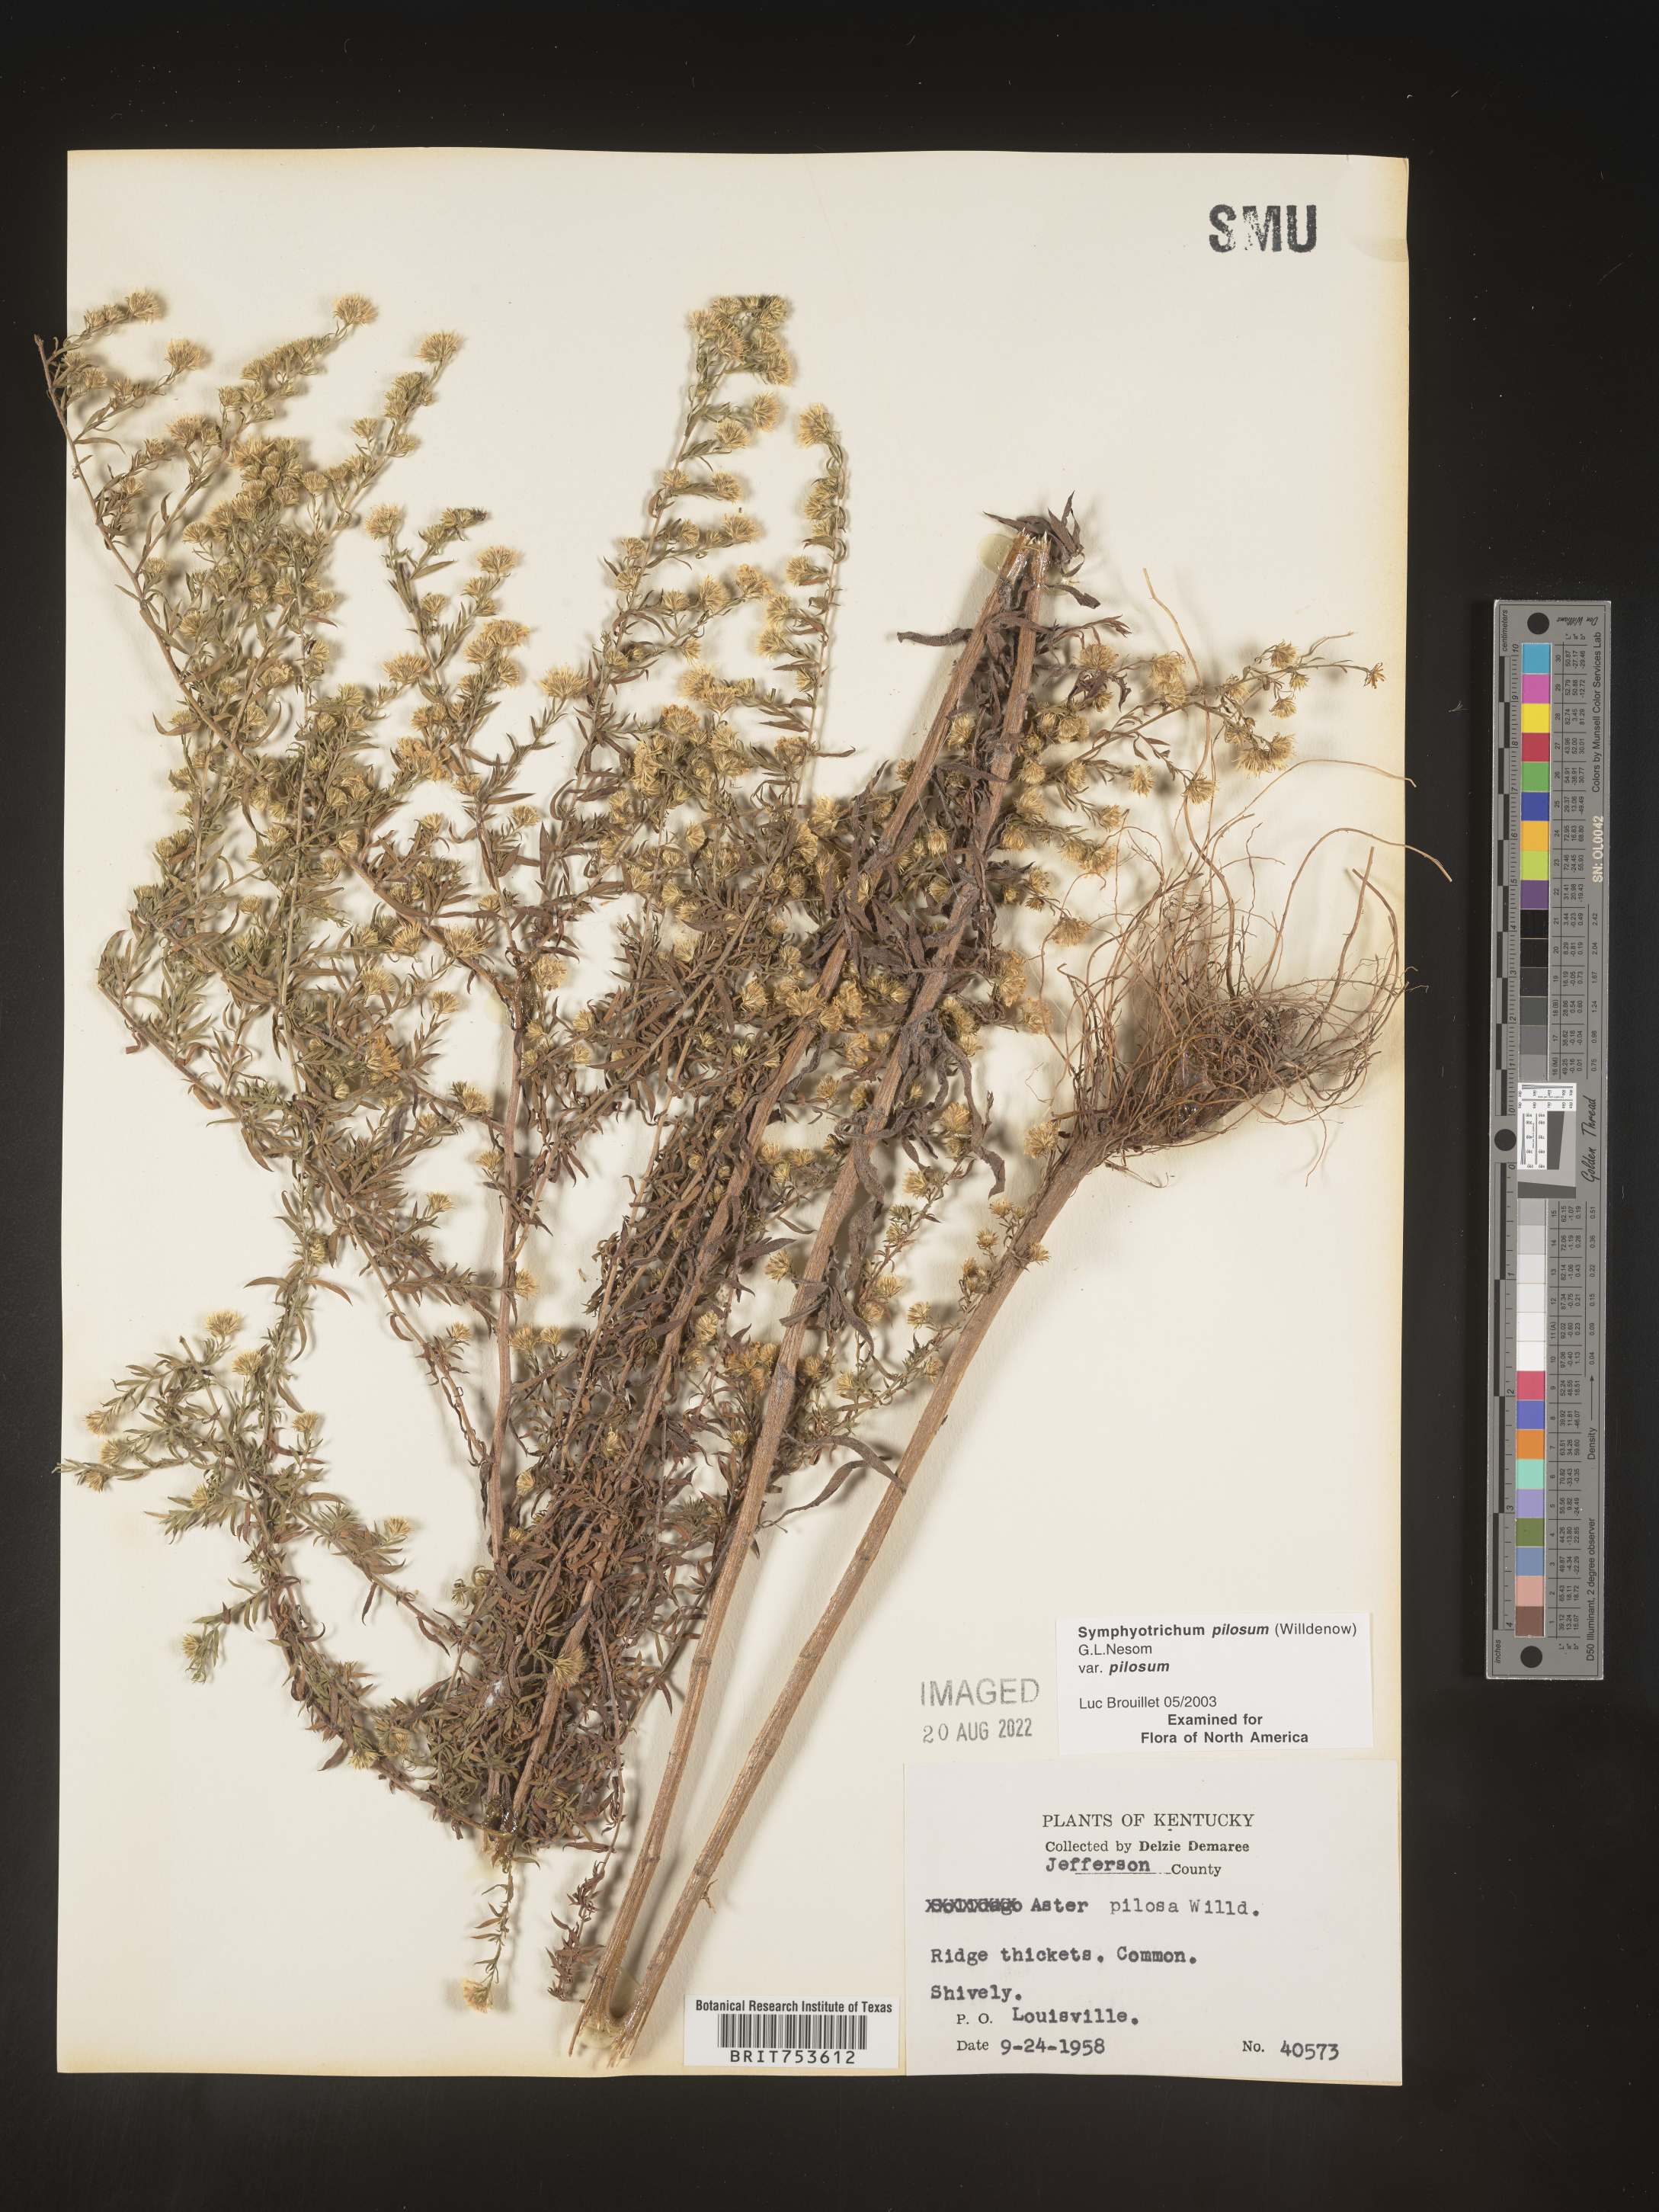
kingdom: Plantae
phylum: Tracheophyta
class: Magnoliopsida
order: Asterales
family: Asteraceae
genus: Symphyotrichum
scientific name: Symphyotrichum pilosum
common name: Awl aster
